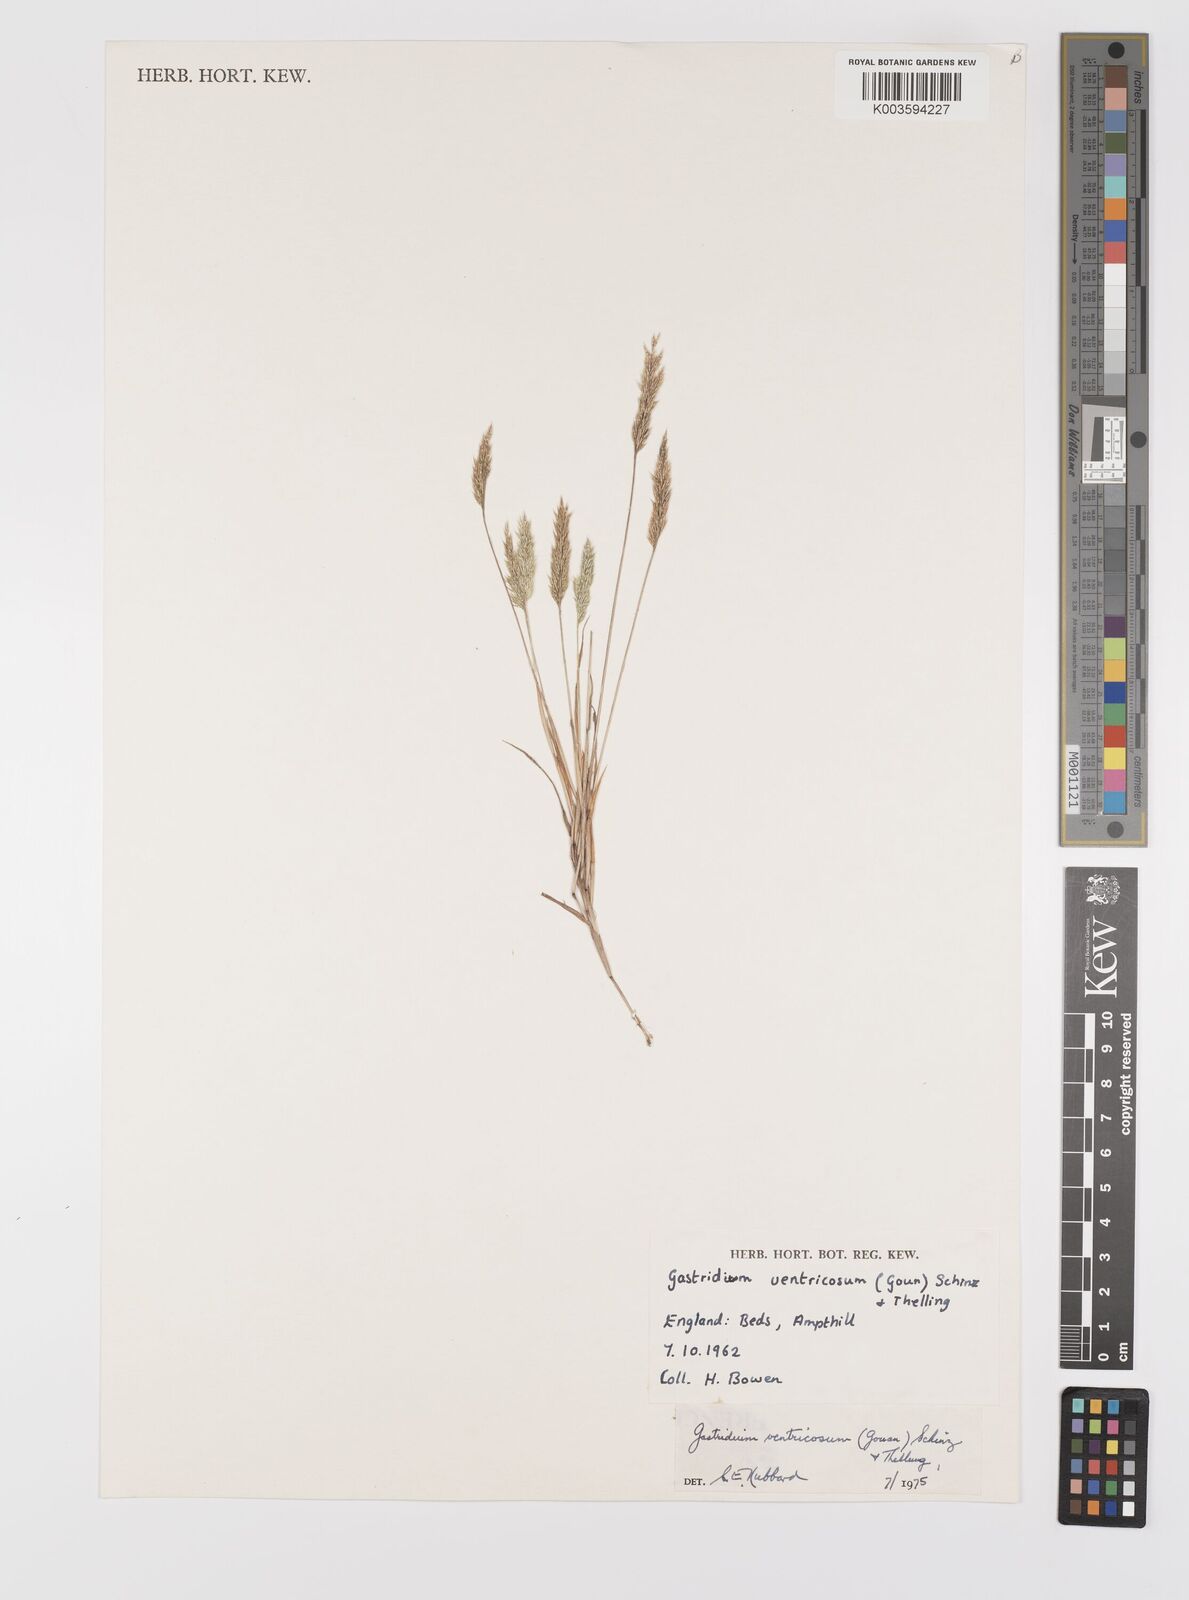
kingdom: Plantae
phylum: Tracheophyta
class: Liliopsida
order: Poales
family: Poaceae
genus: Gastridium
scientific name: Gastridium ventricosum
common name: Nit-grass
